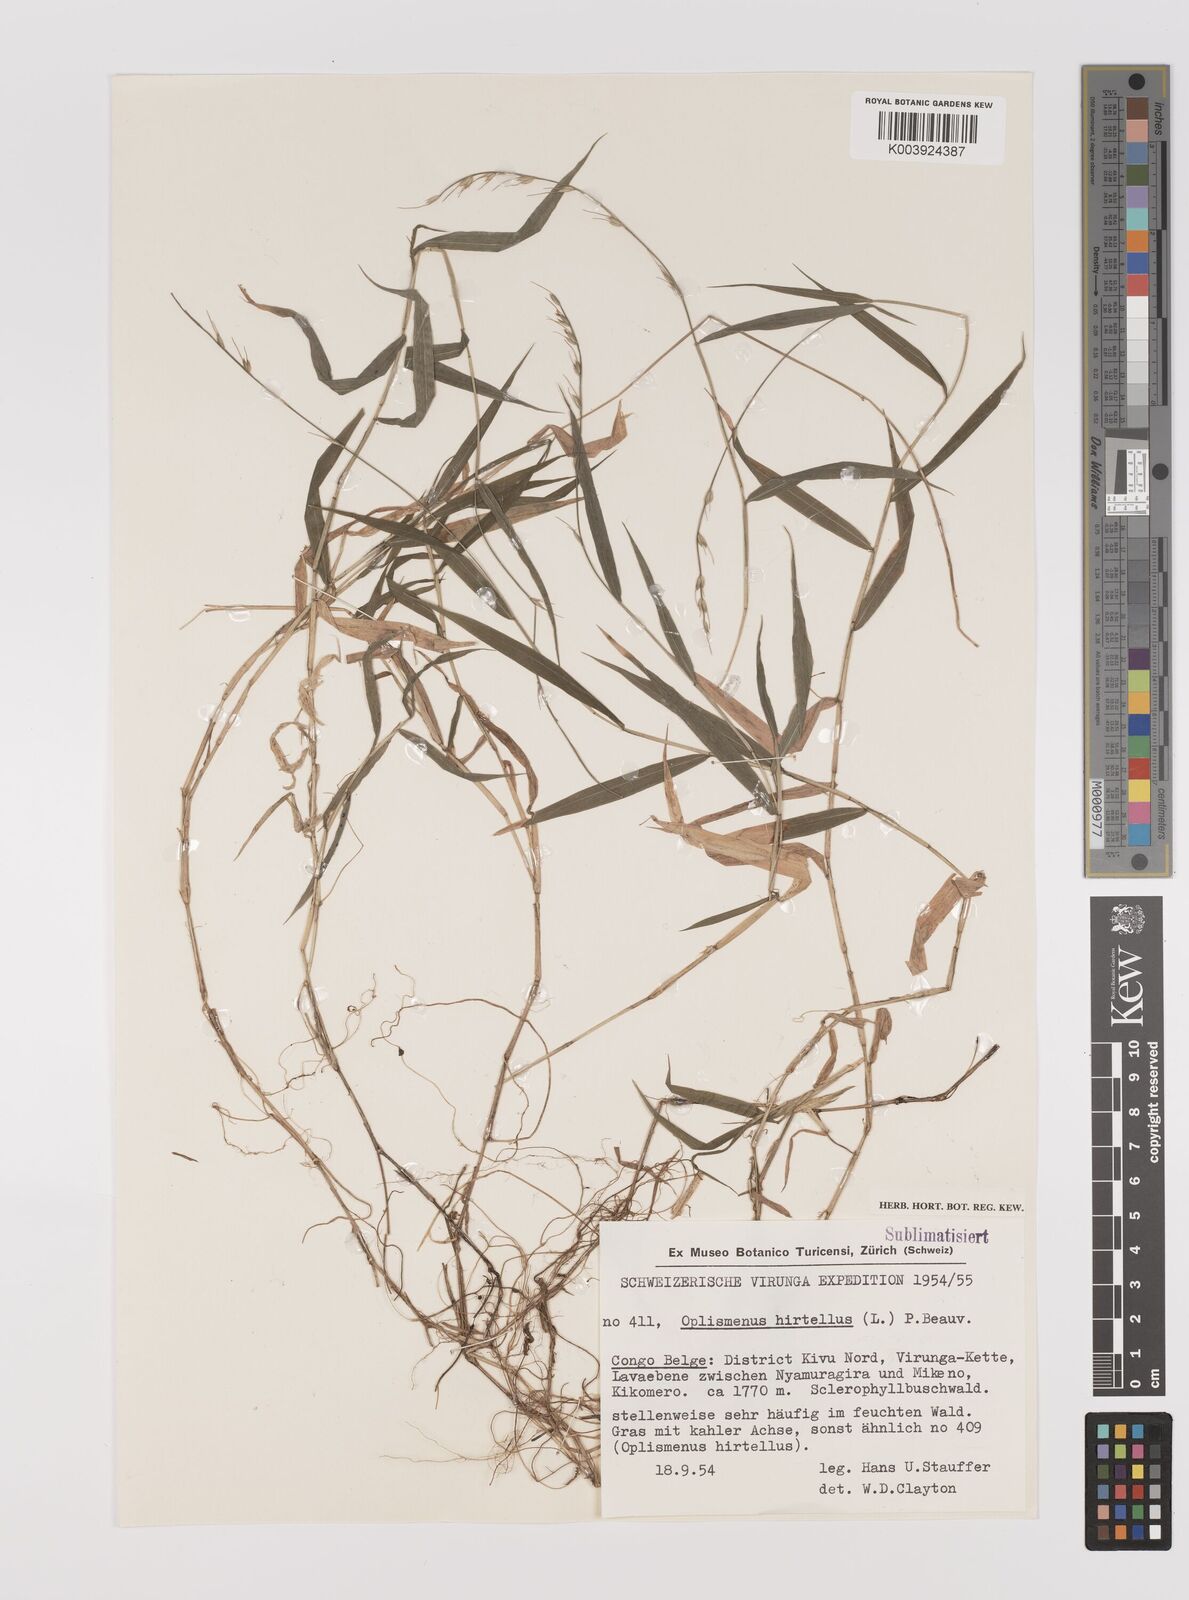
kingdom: Plantae
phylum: Tracheophyta
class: Liliopsida
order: Poales
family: Poaceae
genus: Oplismenus
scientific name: Oplismenus undulatifolius
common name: Wavyleaf basketgrass
